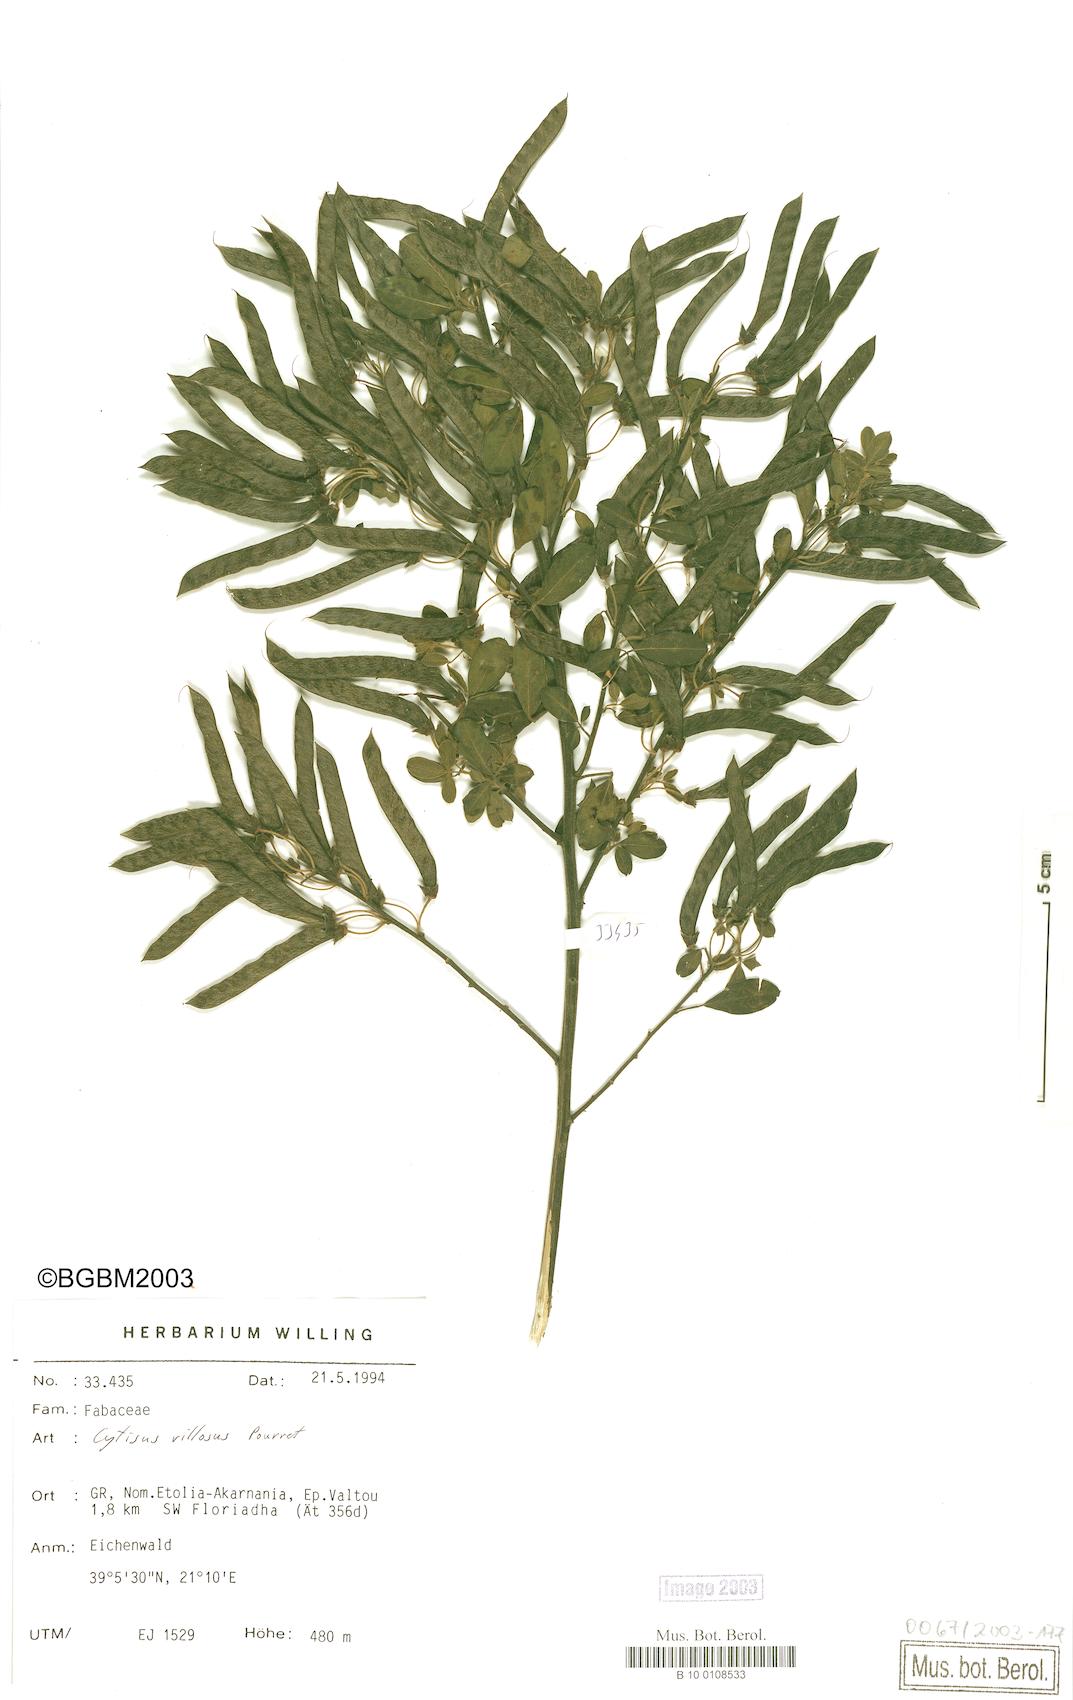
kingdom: Plantae
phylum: Tracheophyta
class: Magnoliopsida
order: Fabales
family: Fabaceae
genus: Cytisus
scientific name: Cytisus villosus
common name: Hairybroom
